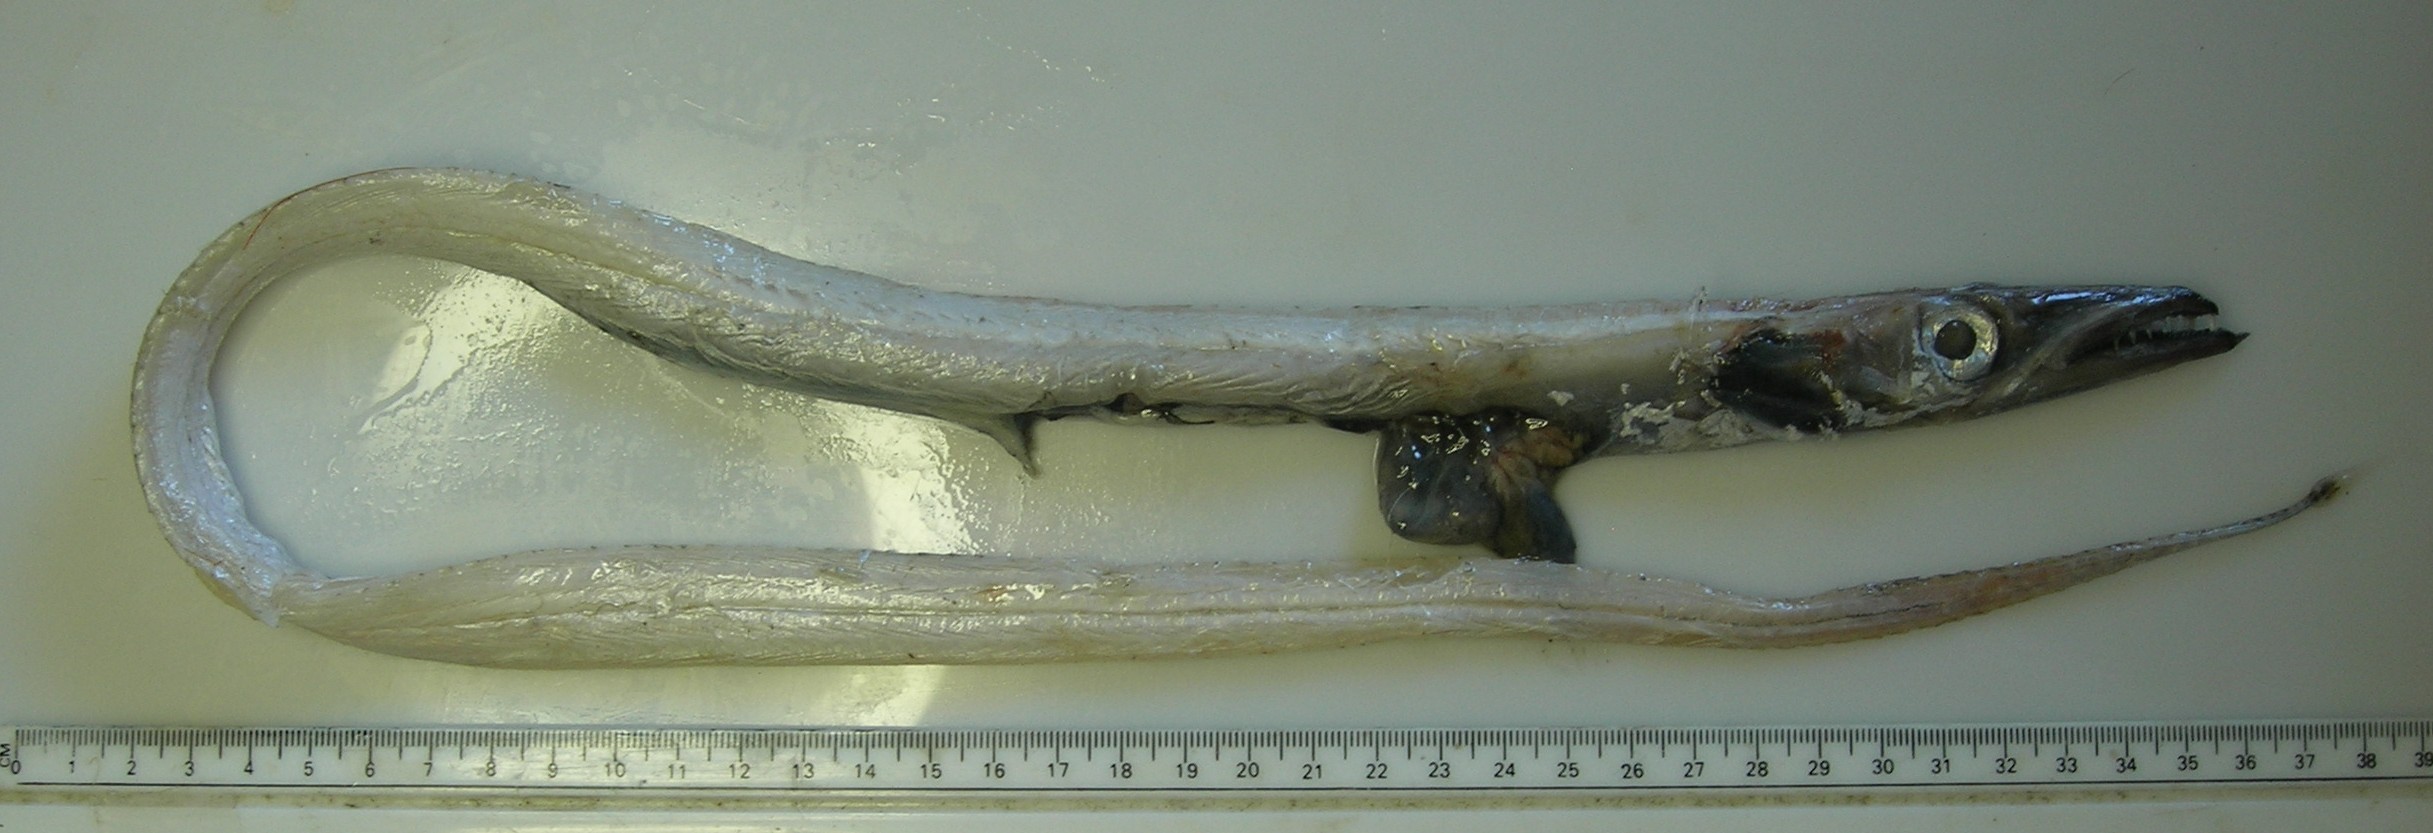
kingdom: Animalia
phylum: Chordata
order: Perciformes
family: Trichiuridae
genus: Benthodesmus
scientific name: Benthodesmus
